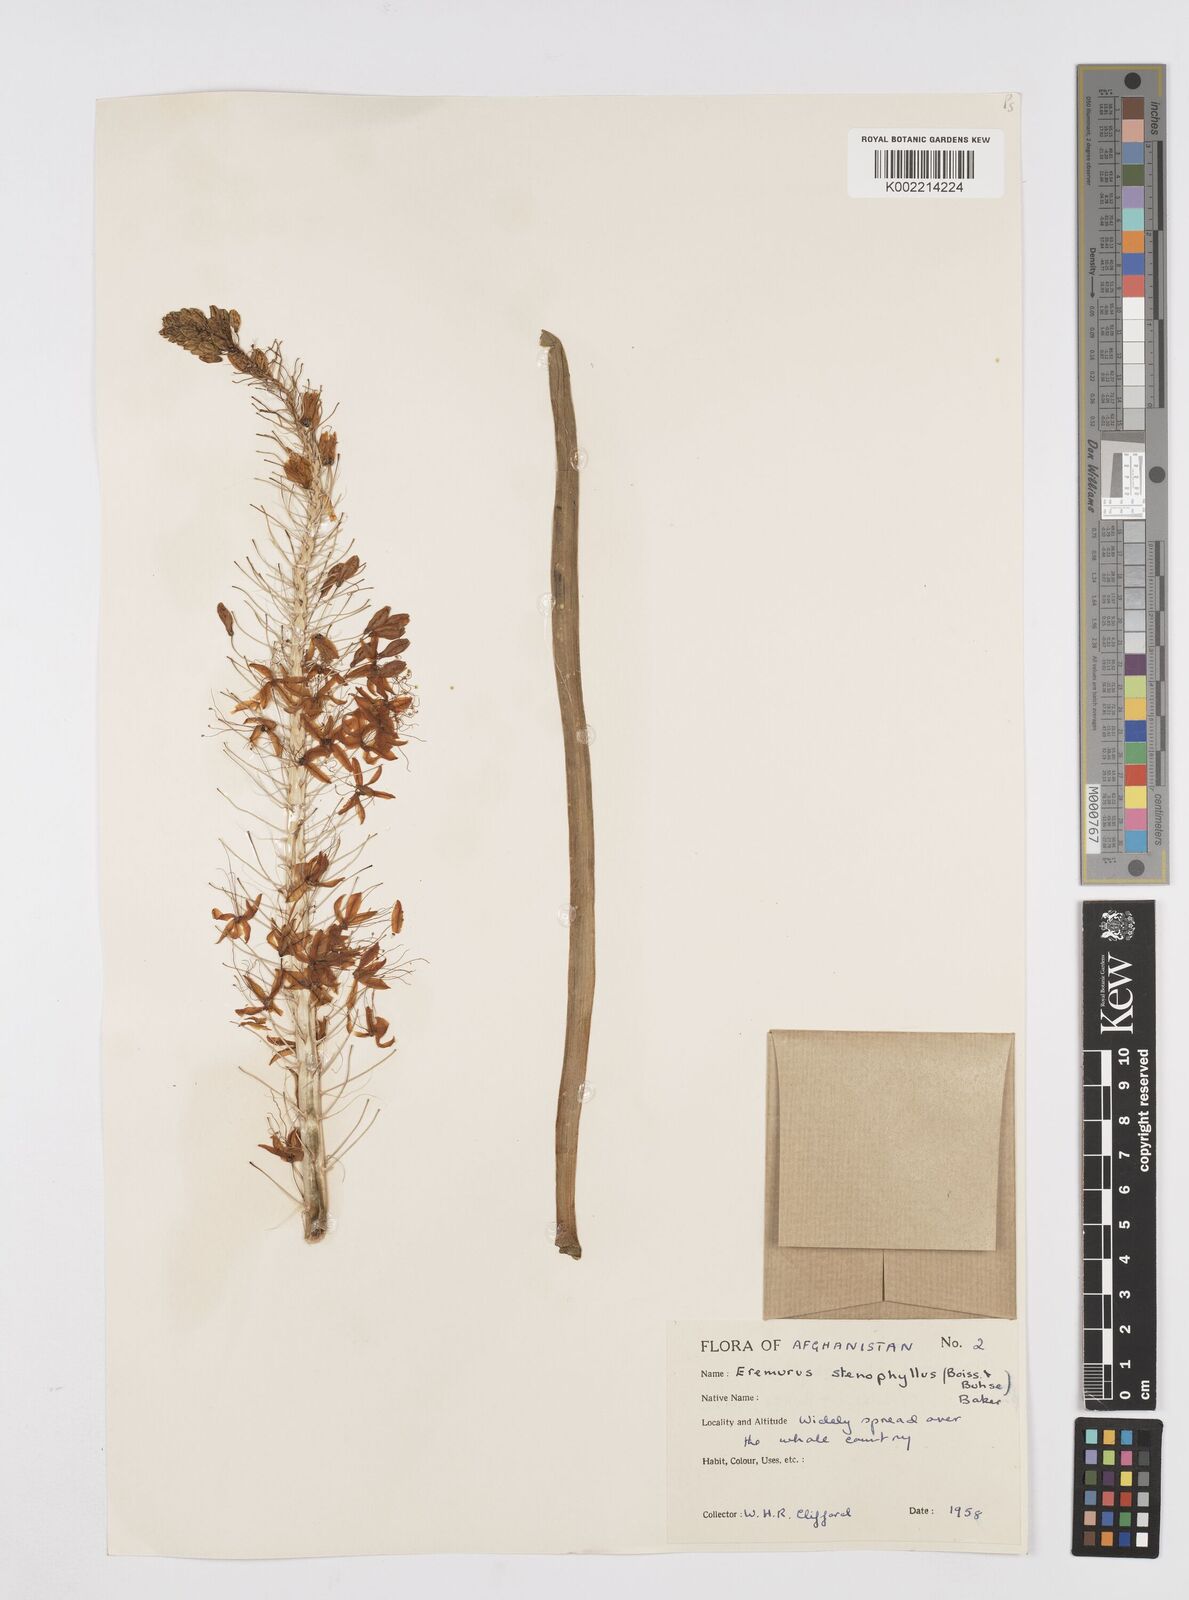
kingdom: Plantae
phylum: Tracheophyta
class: Liliopsida
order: Asparagales
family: Asphodelaceae
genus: Eremurus
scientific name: Eremurus stenophyllus
